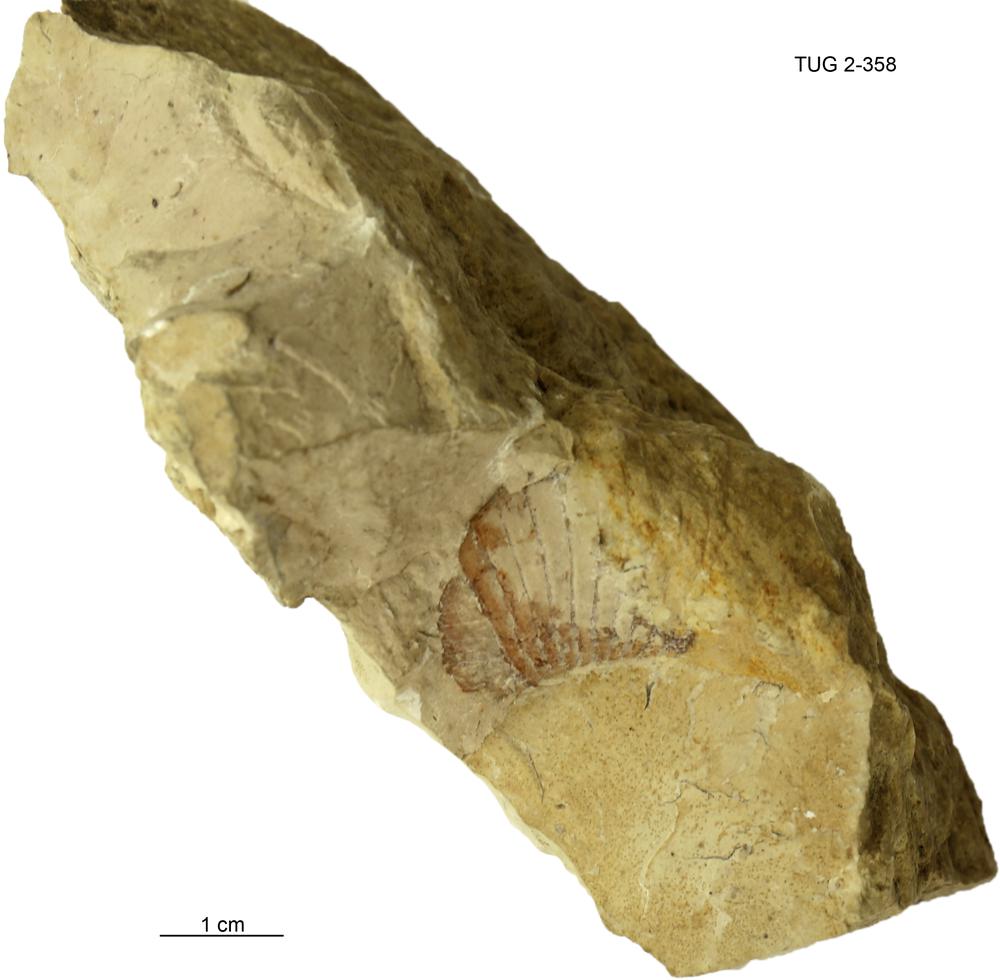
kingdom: Animalia
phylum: Mollusca
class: Cephalopoda
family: Trocholitidae
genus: Schroederoceras
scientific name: Schroederoceras
